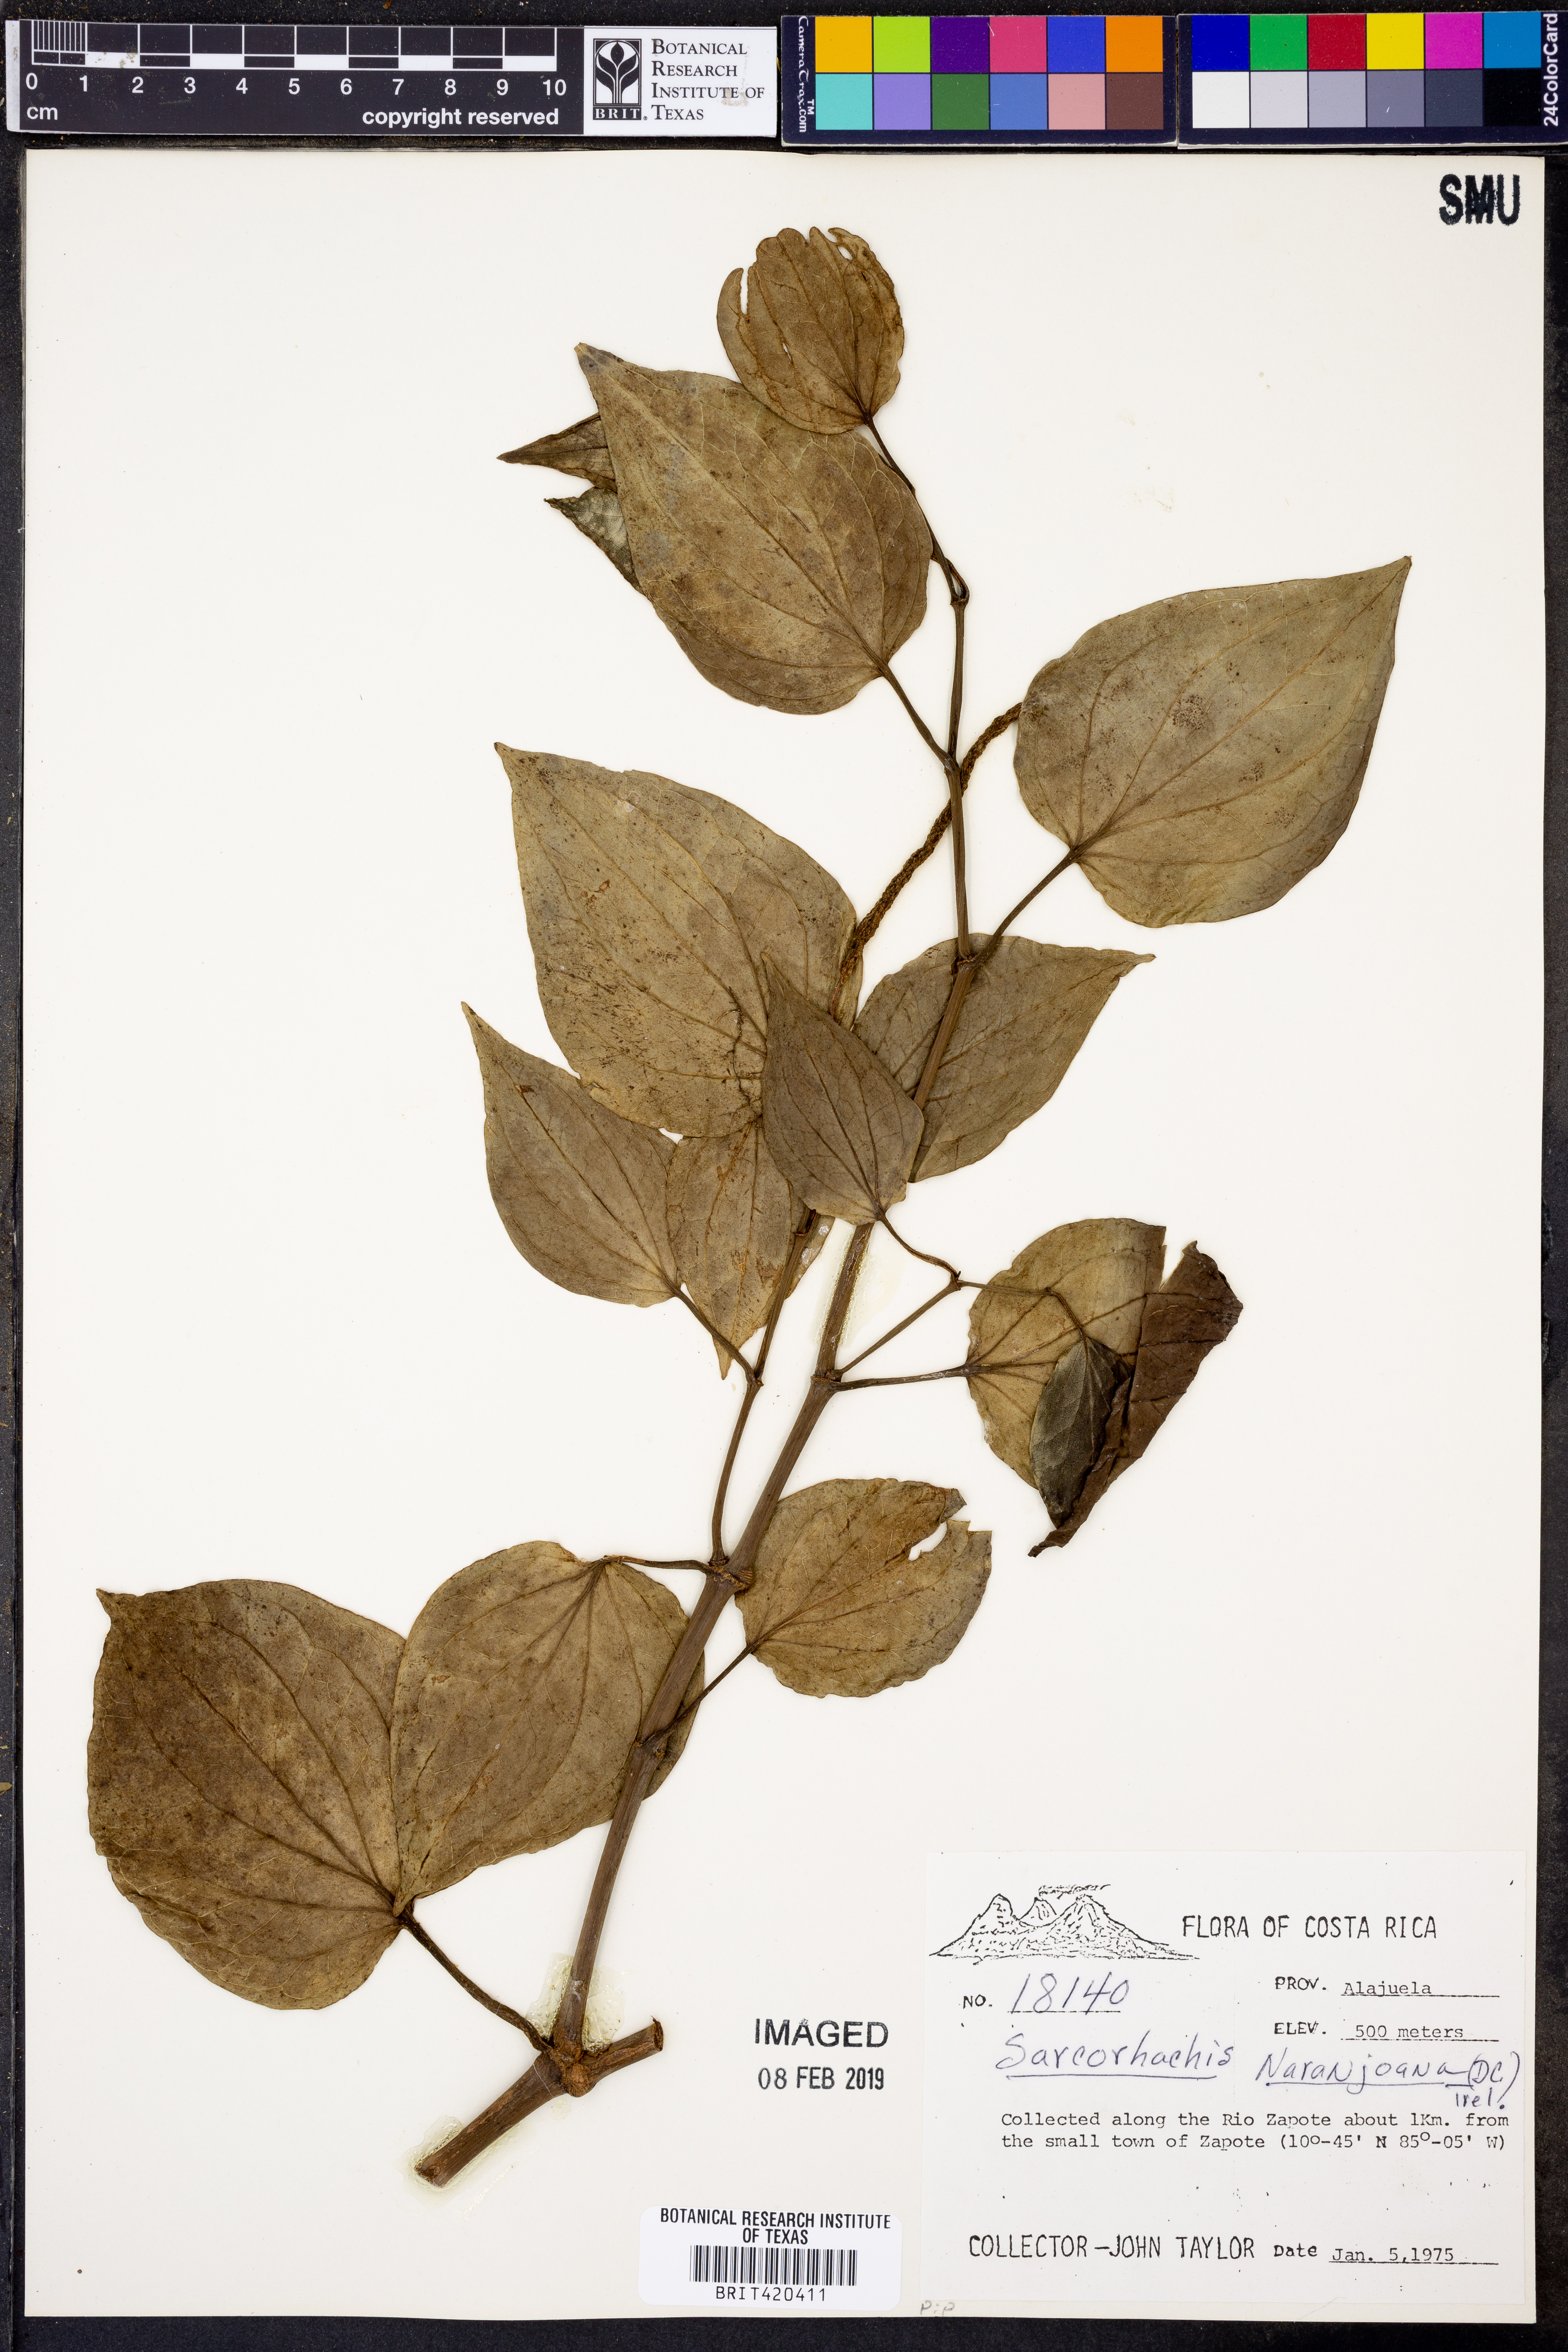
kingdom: Plantae
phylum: Tracheophyta
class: Magnoliopsida
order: Piperales
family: Piperaceae
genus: Manekia
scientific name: Manekia naranjoana
